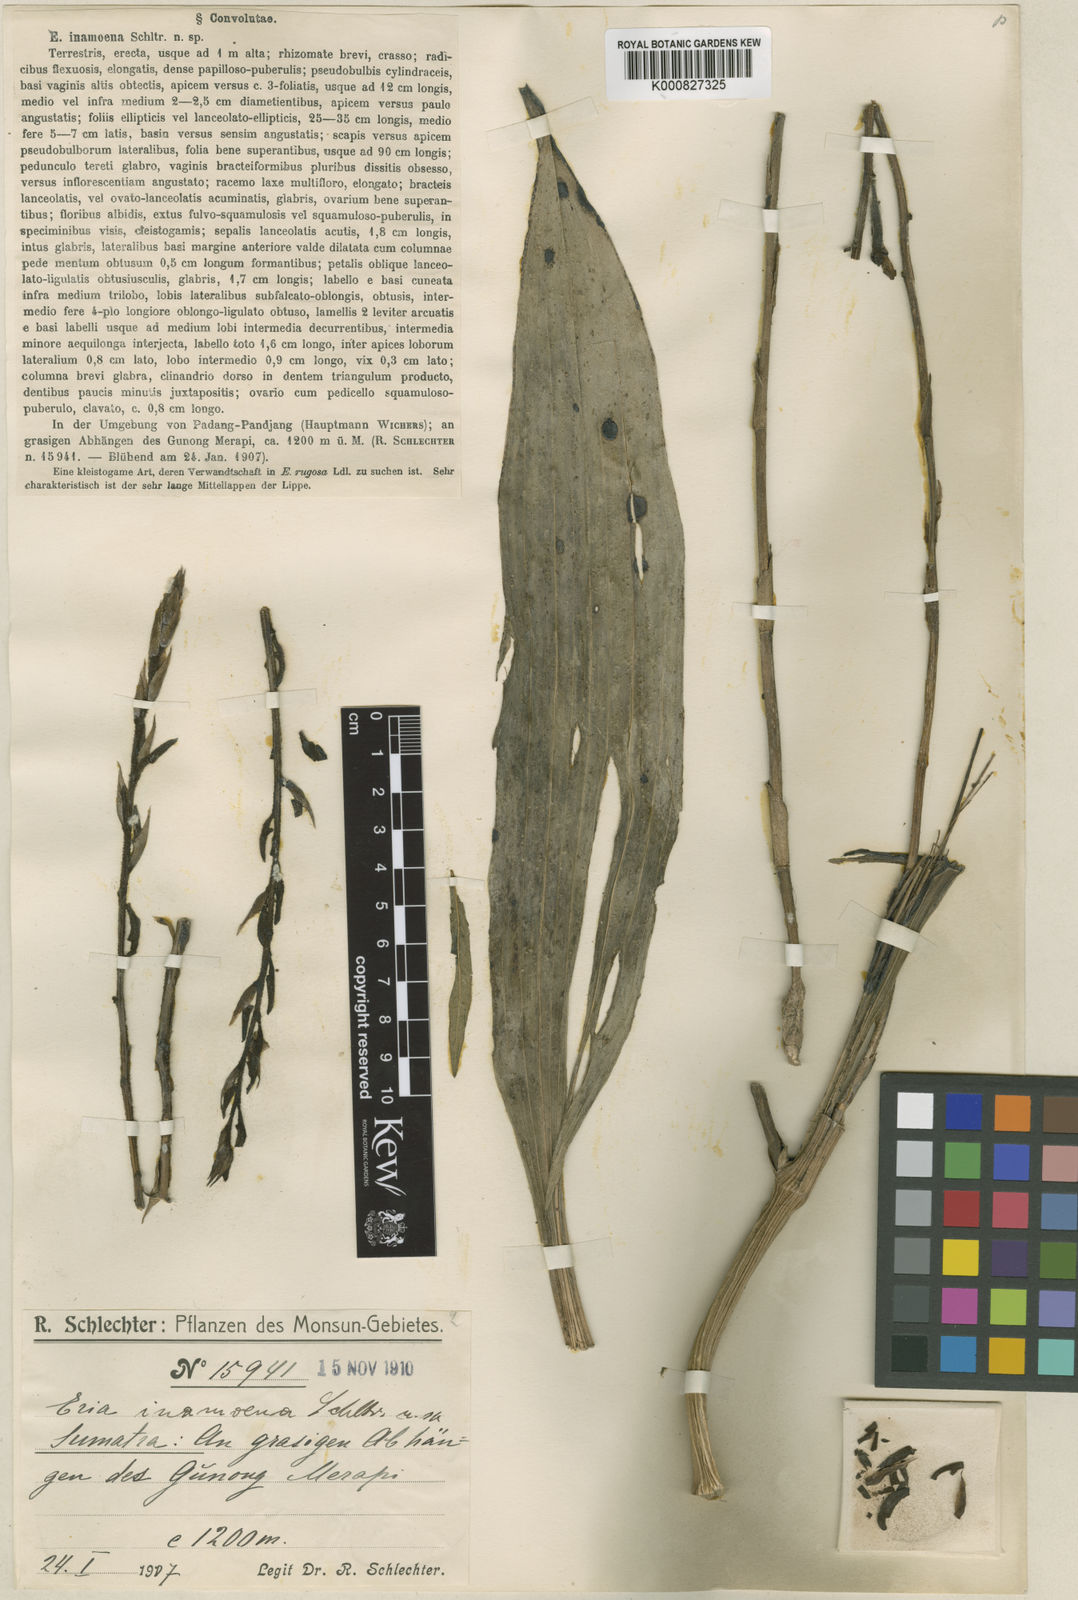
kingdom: Plantae
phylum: Tracheophyta
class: Liliopsida
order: Asparagales
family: Orchidaceae
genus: Eria
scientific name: Eria javanica
